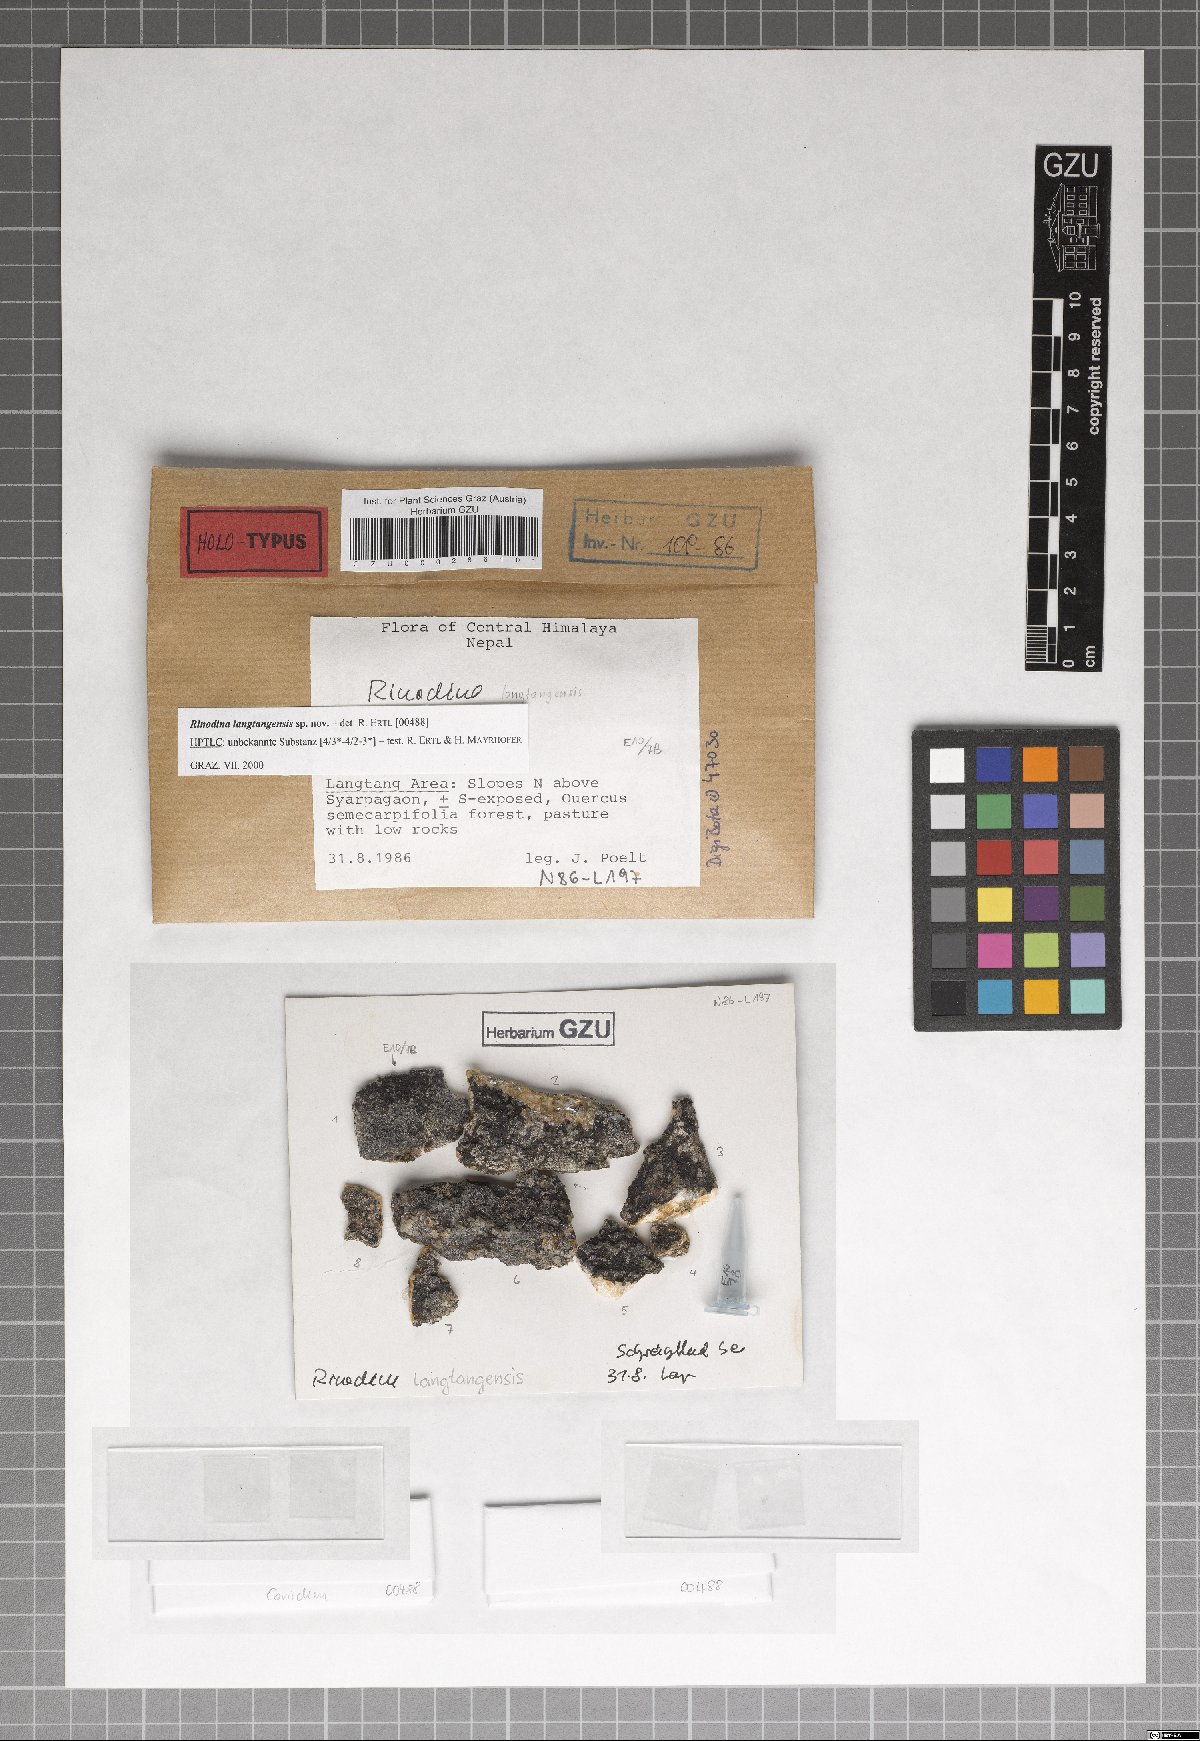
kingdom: Fungi
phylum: Ascomycota
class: Lecanoromycetes
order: Caliciales
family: Physciaceae
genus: Rinodina
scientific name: Rinodina
